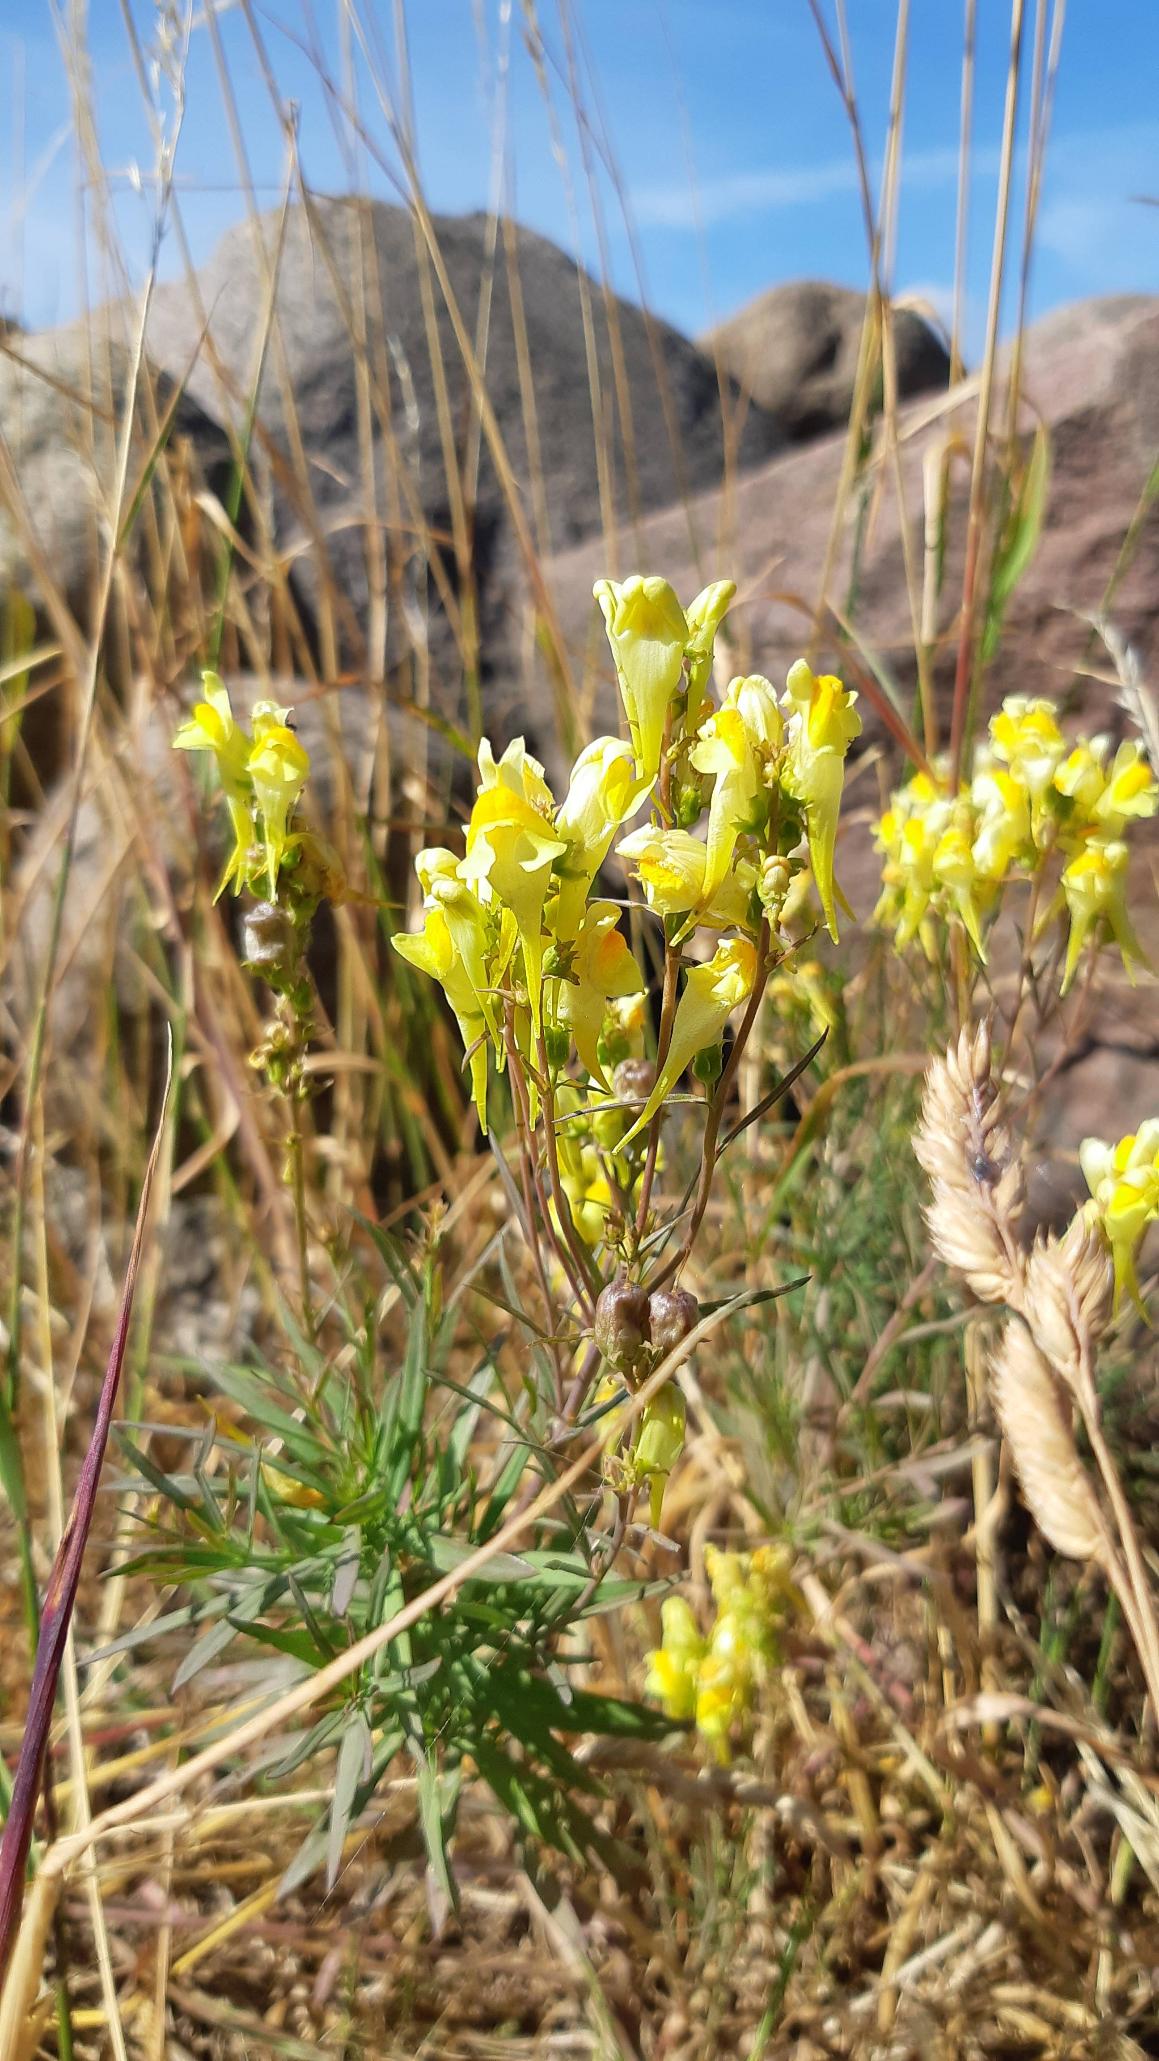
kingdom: Plantae
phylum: Tracheophyta
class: Magnoliopsida
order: Lamiales
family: Plantaginaceae
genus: Linaria
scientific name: Linaria vulgaris
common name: Almindelig torskemund
